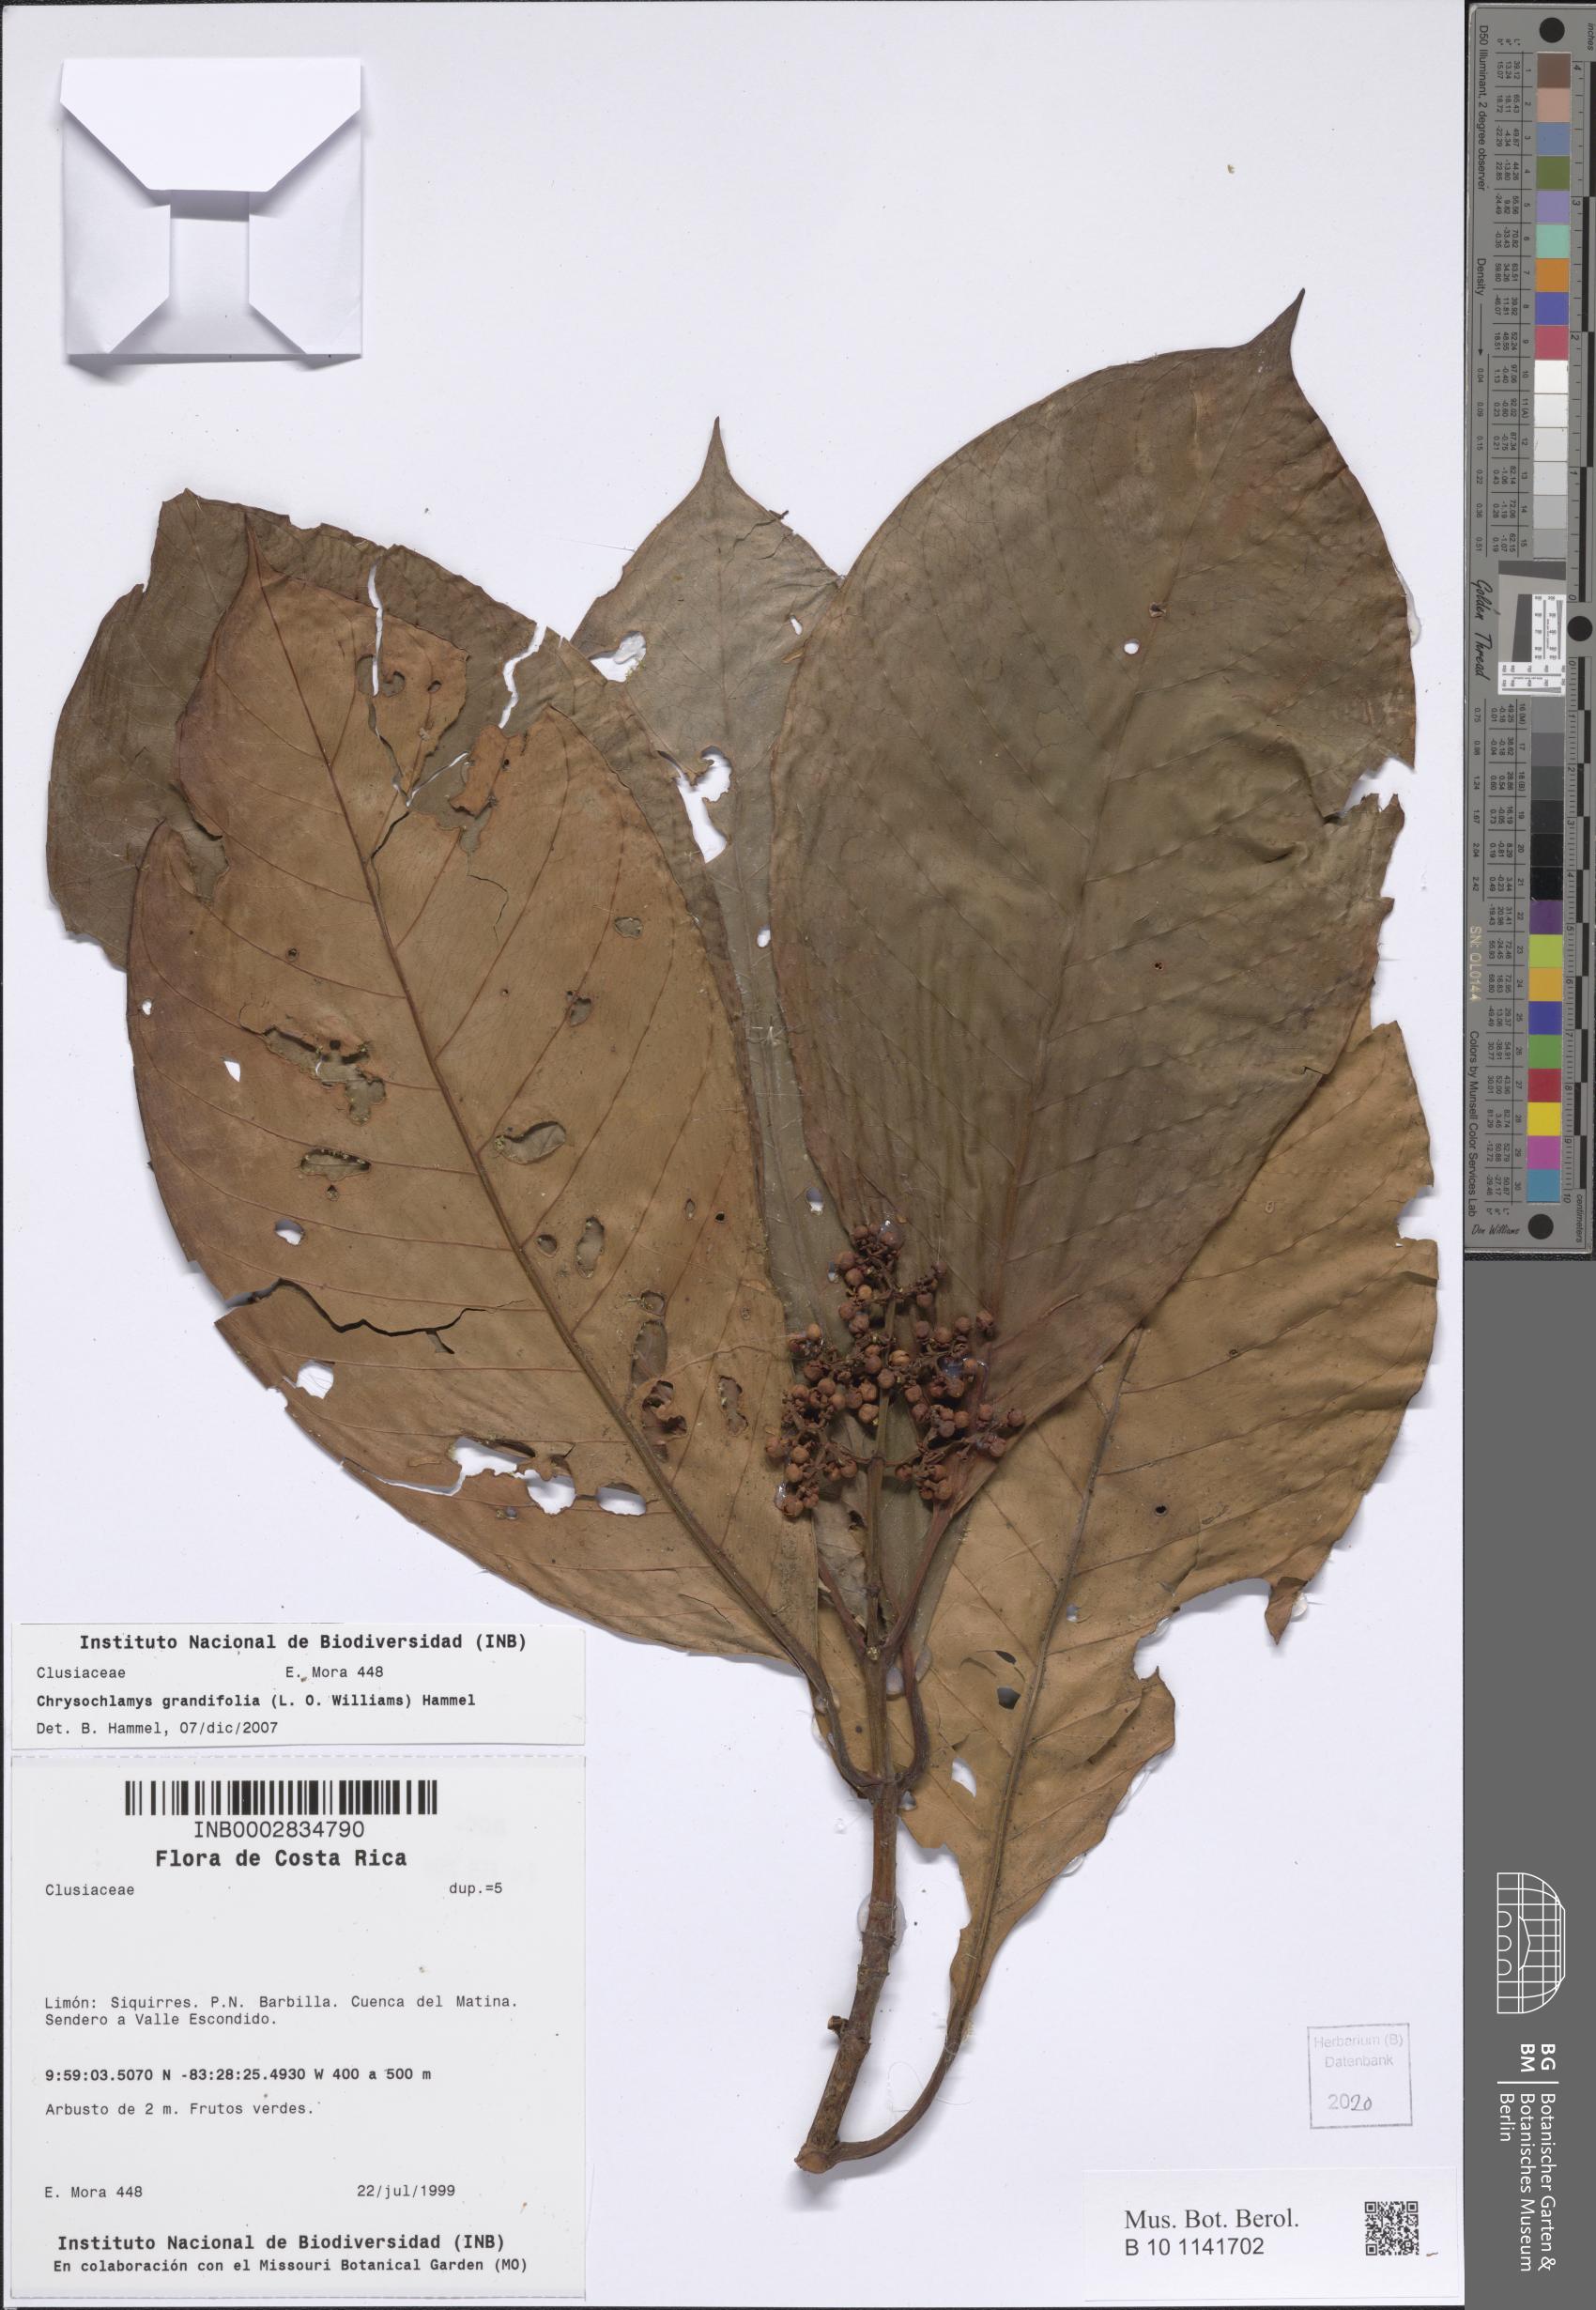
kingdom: Plantae
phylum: Tracheophyta
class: Magnoliopsida
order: Malpighiales
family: Clusiaceae
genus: Chrysochlamys
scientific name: Chrysochlamys myrcioides
